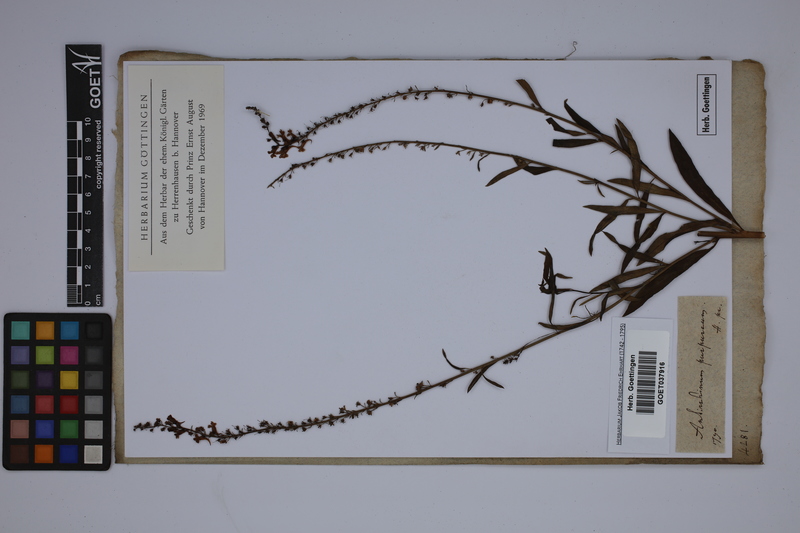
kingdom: Plantae
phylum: Tracheophyta
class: Magnoliopsida
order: Lamiales
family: Plantaginaceae
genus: Linaria
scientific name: Linaria purpurea
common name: Purple toadflax
